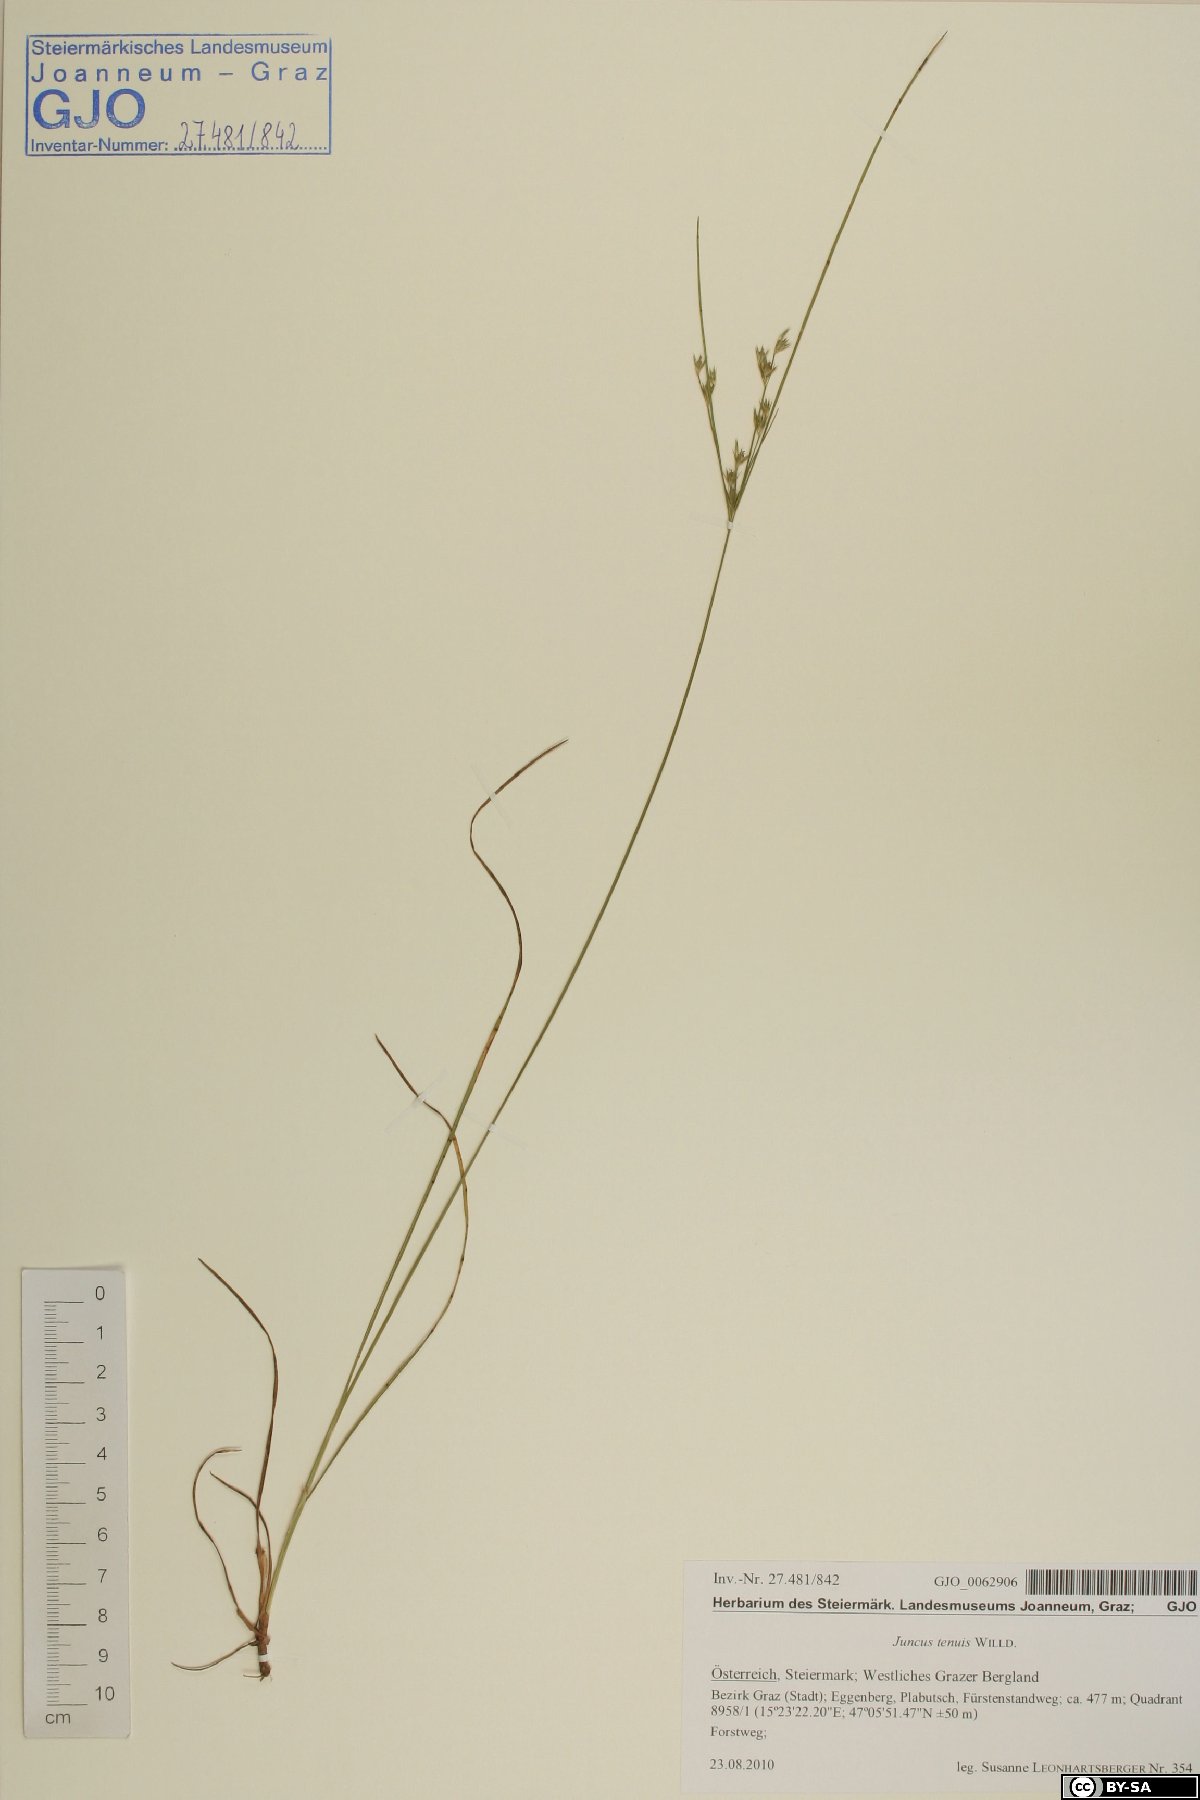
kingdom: Plantae
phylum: Tracheophyta
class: Liliopsida
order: Poales
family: Juncaceae
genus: Juncus
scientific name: Juncus tenuis
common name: Slender rush
